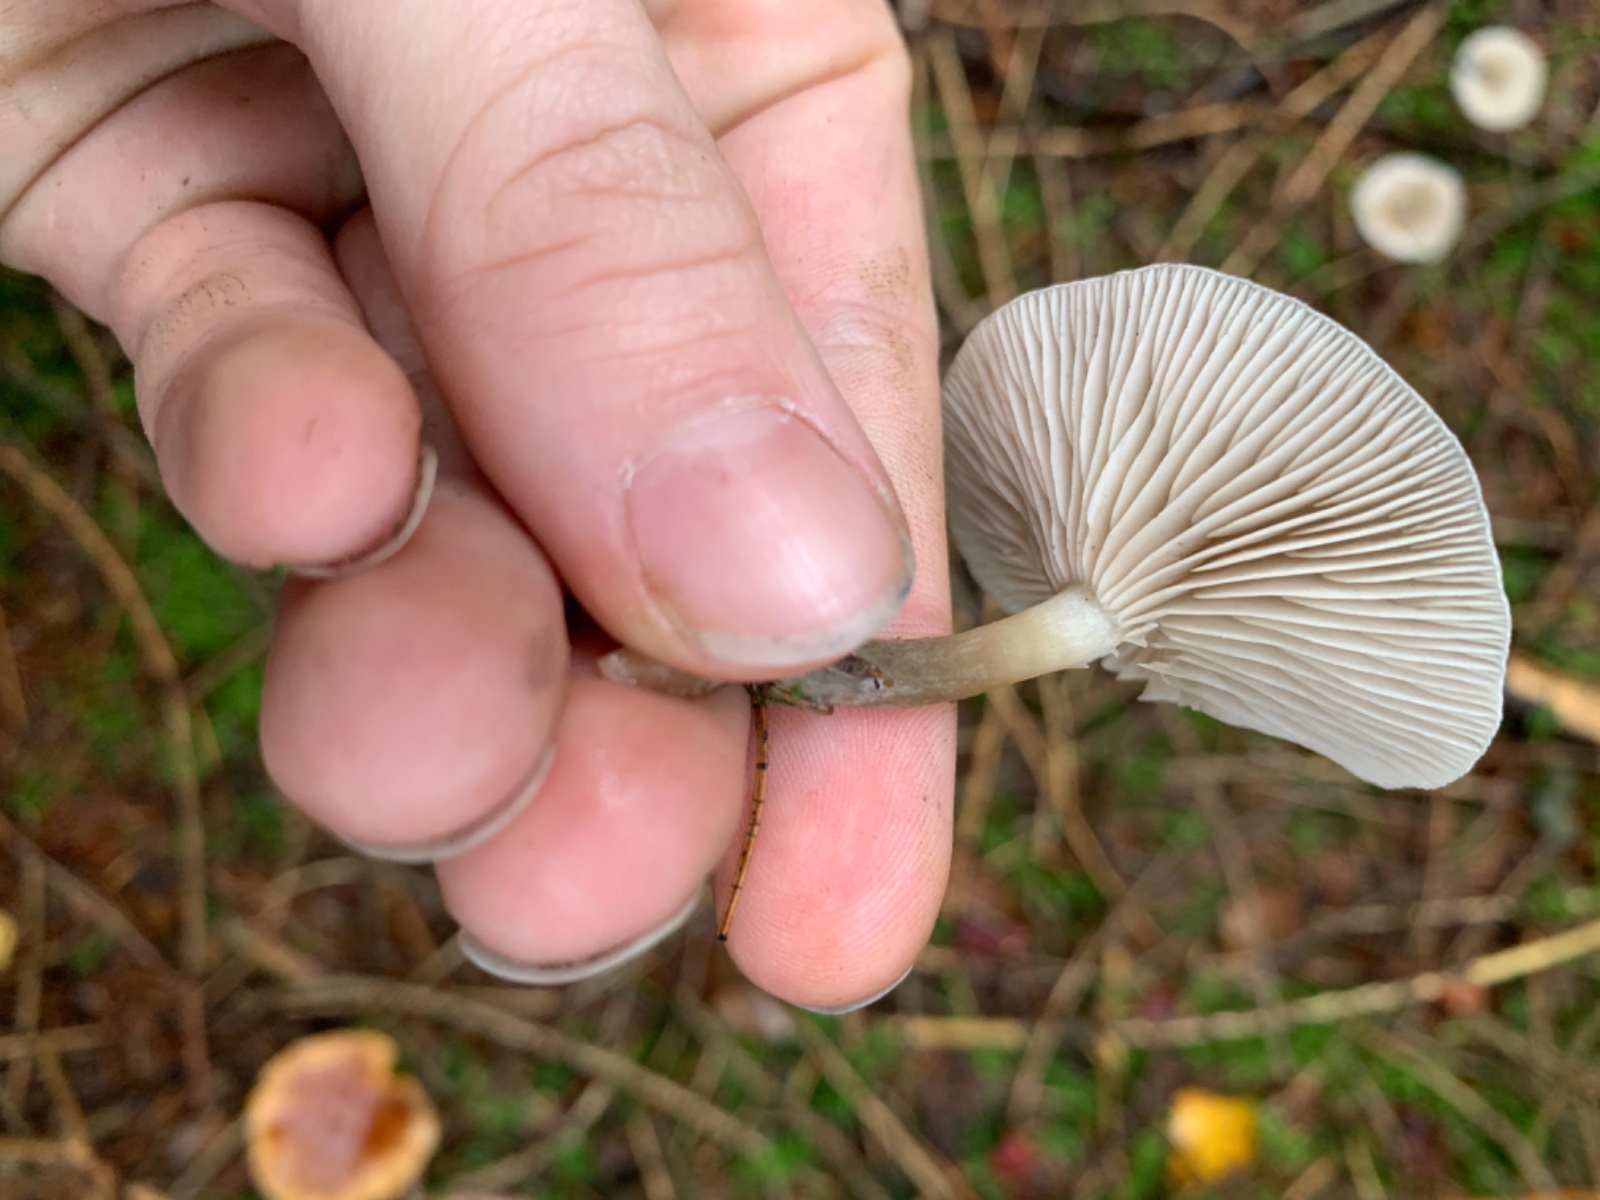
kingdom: Fungi
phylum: Basidiomycota
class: Agaricomycetes
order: Agaricales
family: Tricholomataceae
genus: Clitocybe
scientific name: Clitocybe metachroa
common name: grå tragthat
